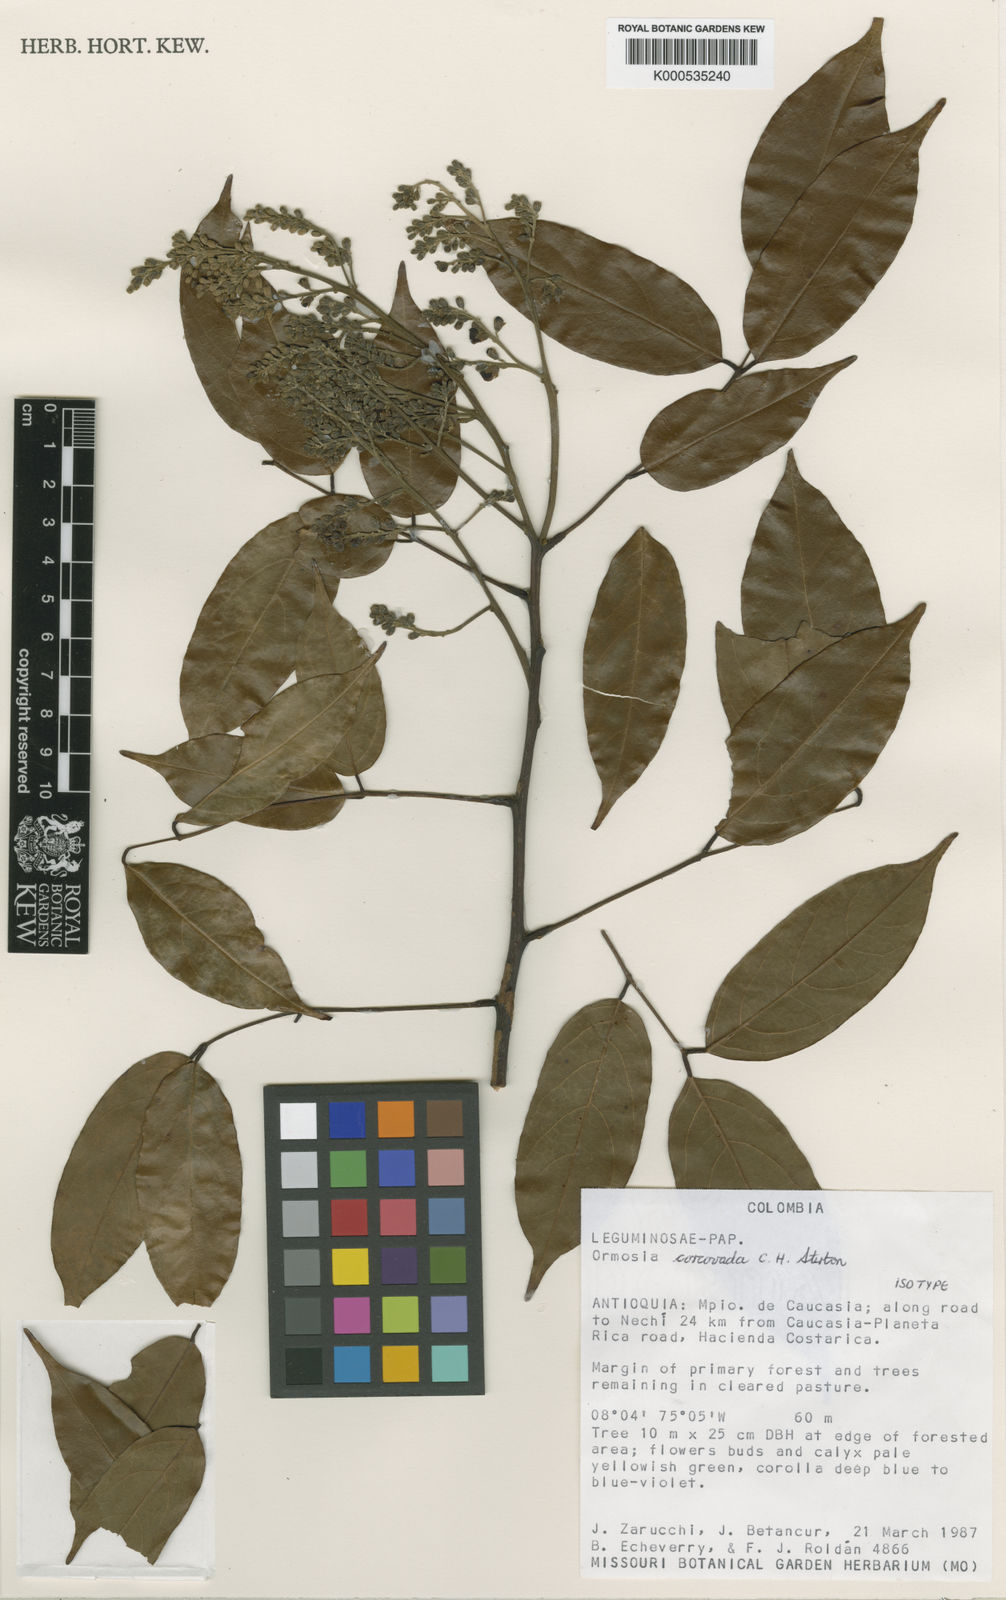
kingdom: Plantae
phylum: Tracheophyta
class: Magnoliopsida
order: Fabales
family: Fabaceae
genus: Ormosia
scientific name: Ormosia
